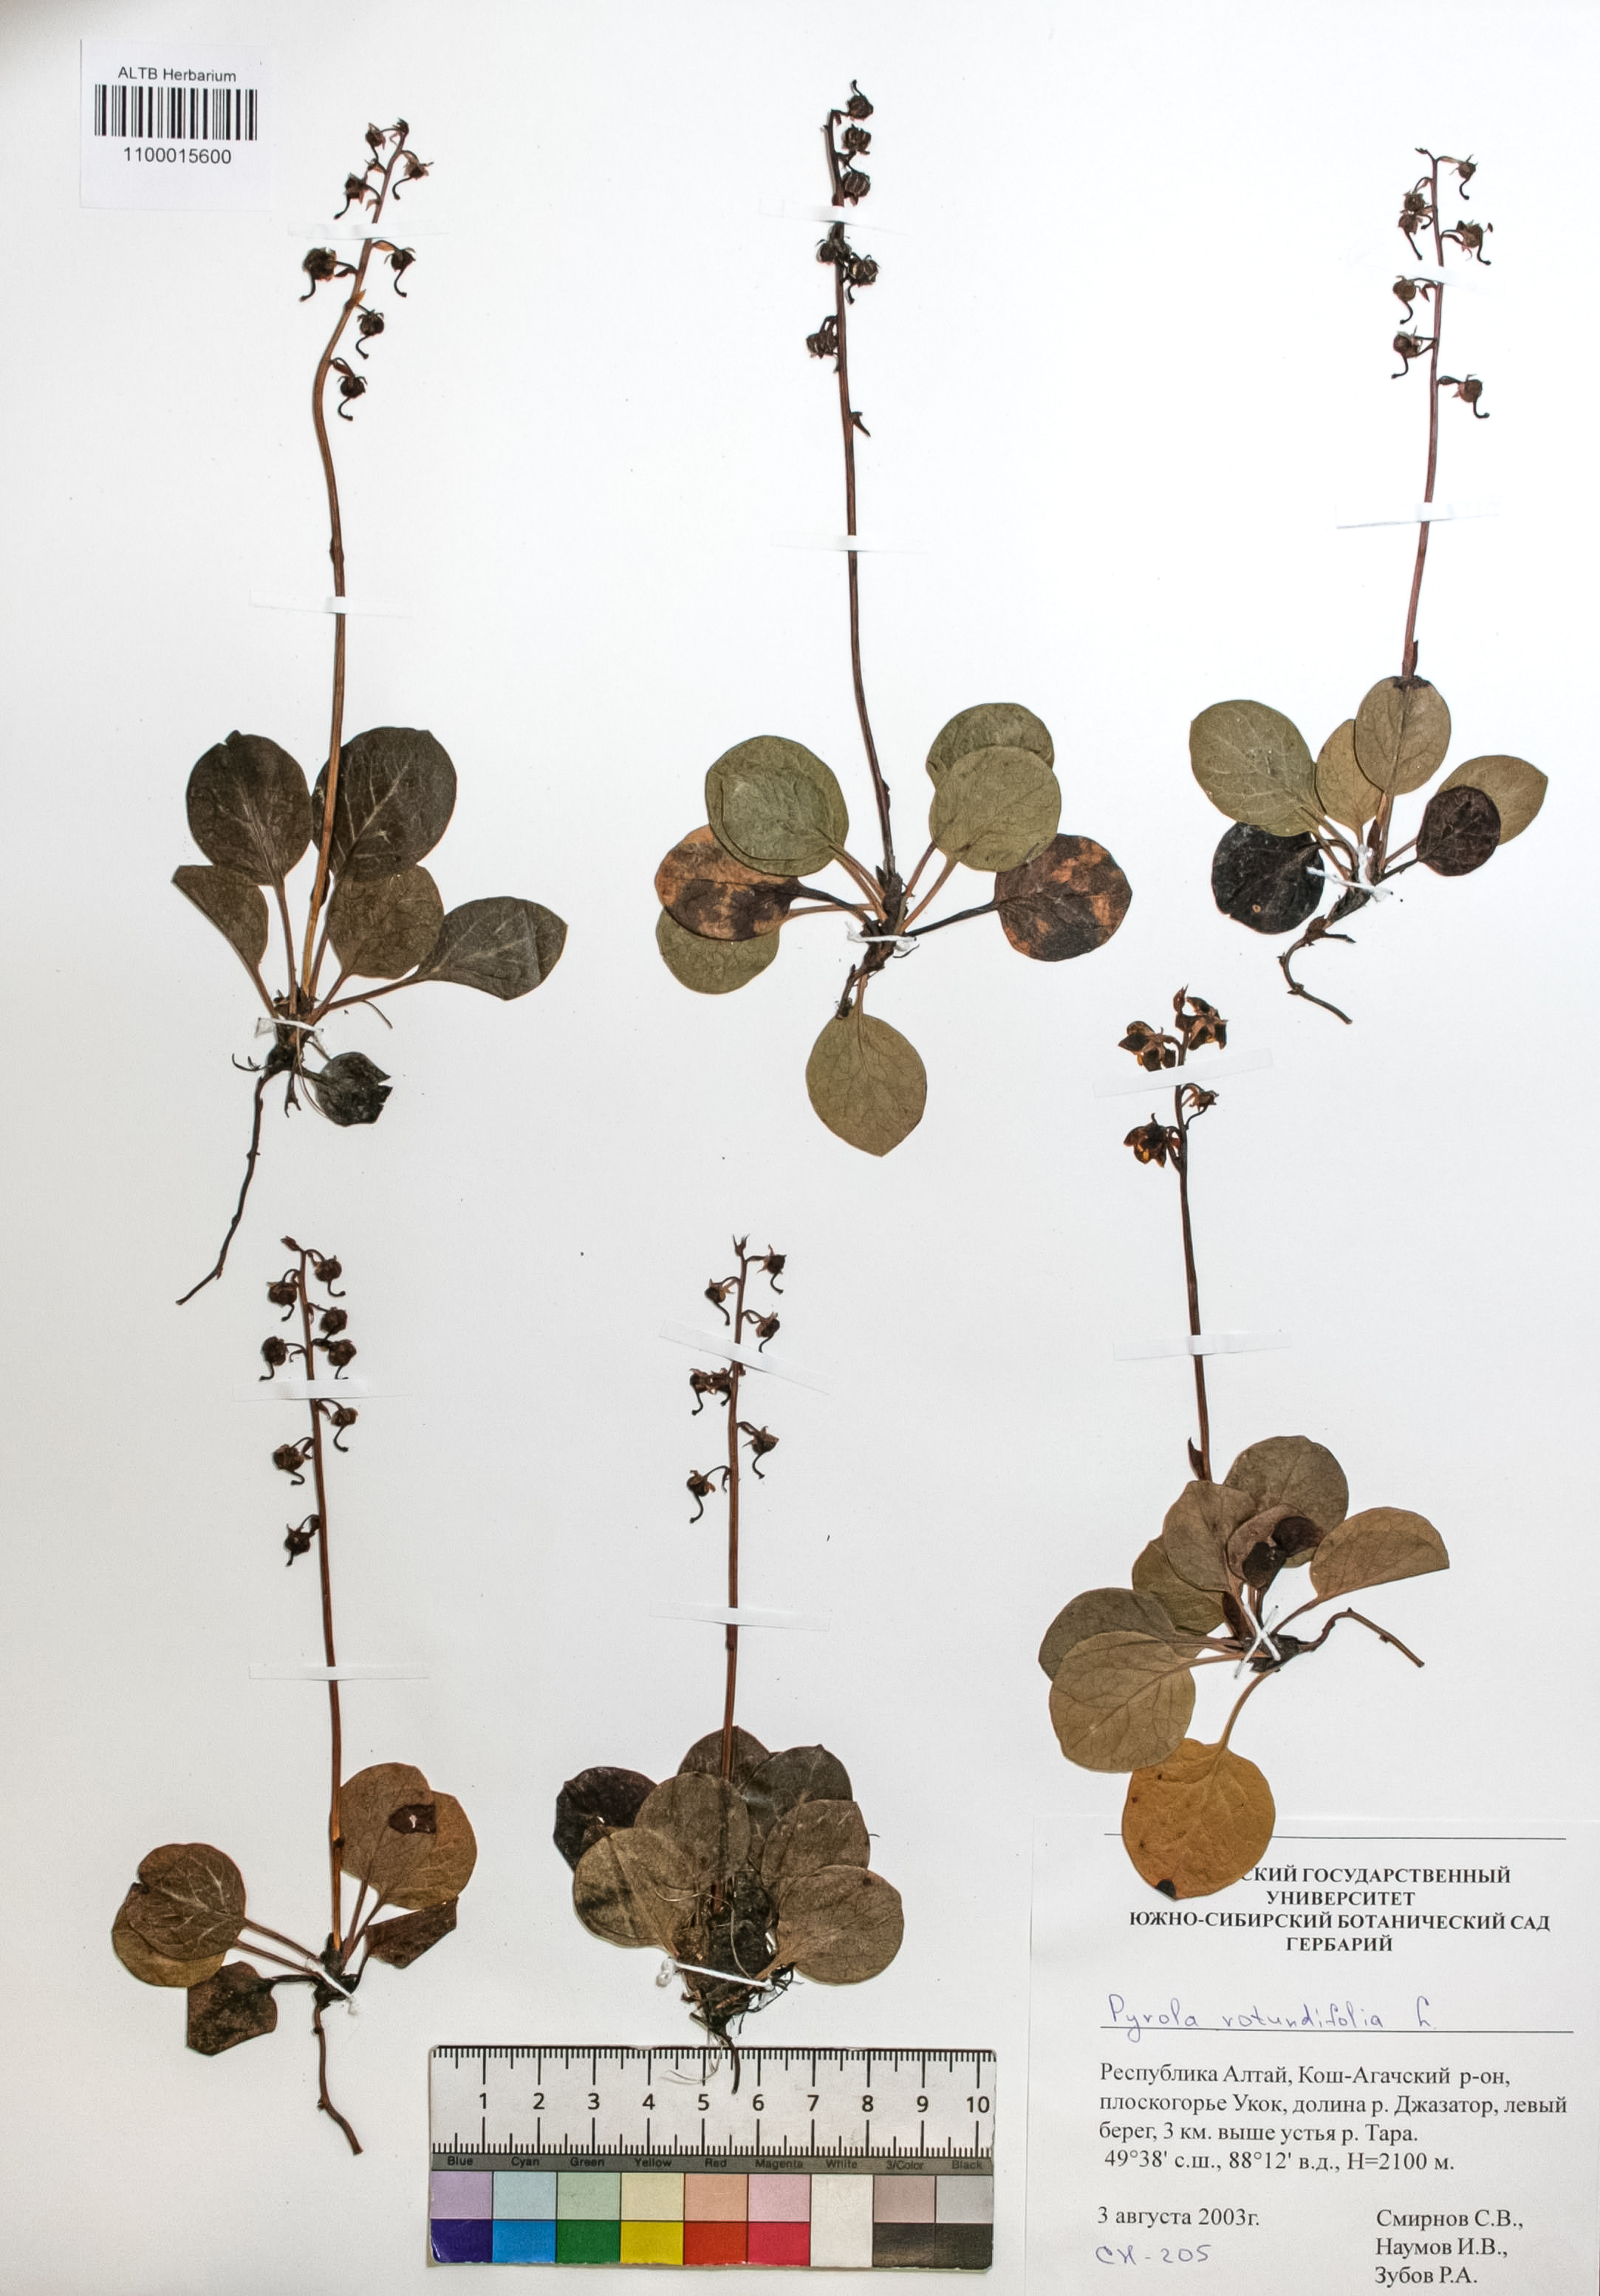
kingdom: Plantae
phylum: Tracheophyta
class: Magnoliopsida
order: Ericales
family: Ericaceae
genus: Pyrola
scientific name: Pyrola rotundifolia
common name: Round-leaved wintergreen
